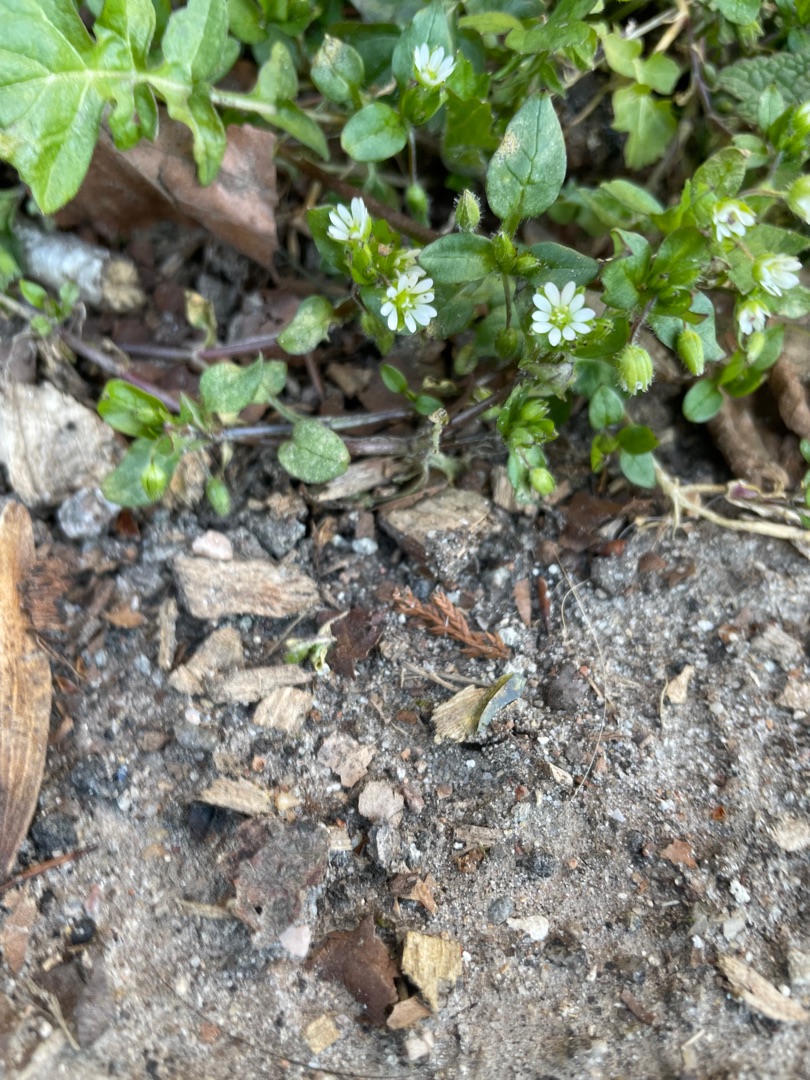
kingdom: Plantae
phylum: Tracheophyta
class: Magnoliopsida
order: Caryophyllales
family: Caryophyllaceae
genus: Stellaria
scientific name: Stellaria media
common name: Almindelig fuglegræs
